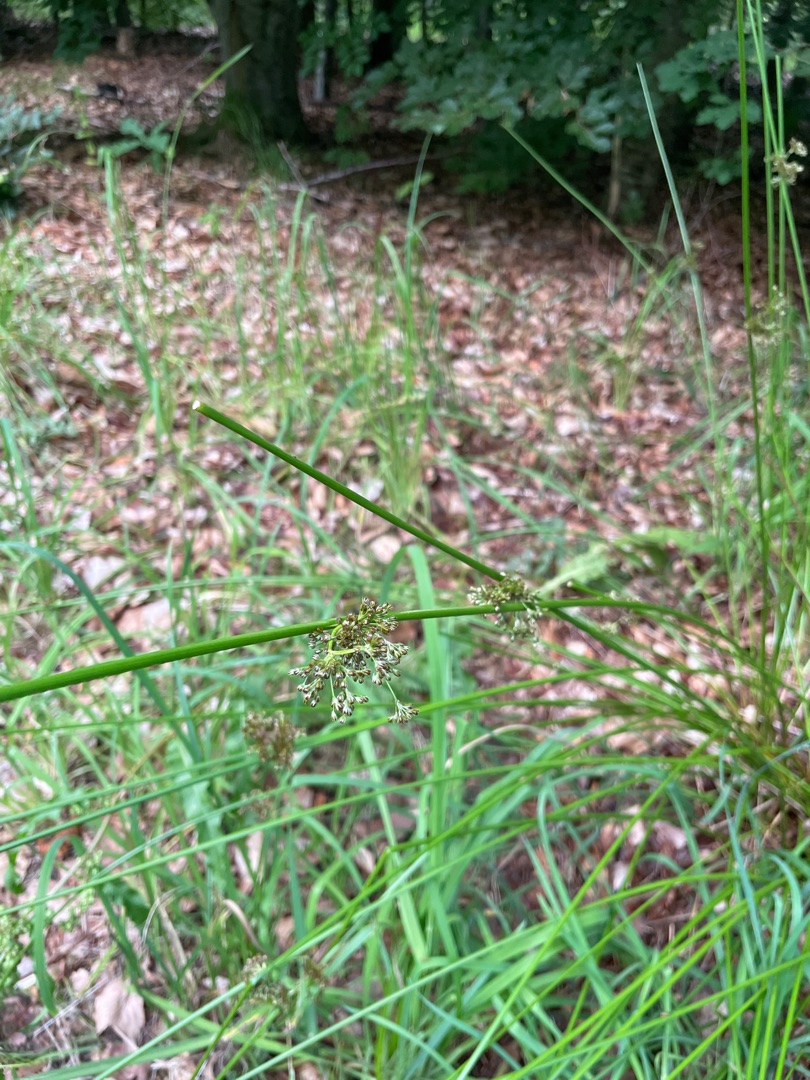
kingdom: Plantae
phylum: Tracheophyta
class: Liliopsida
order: Poales
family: Juncaceae
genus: Juncus
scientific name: Juncus effusus
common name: Lyse-siv
